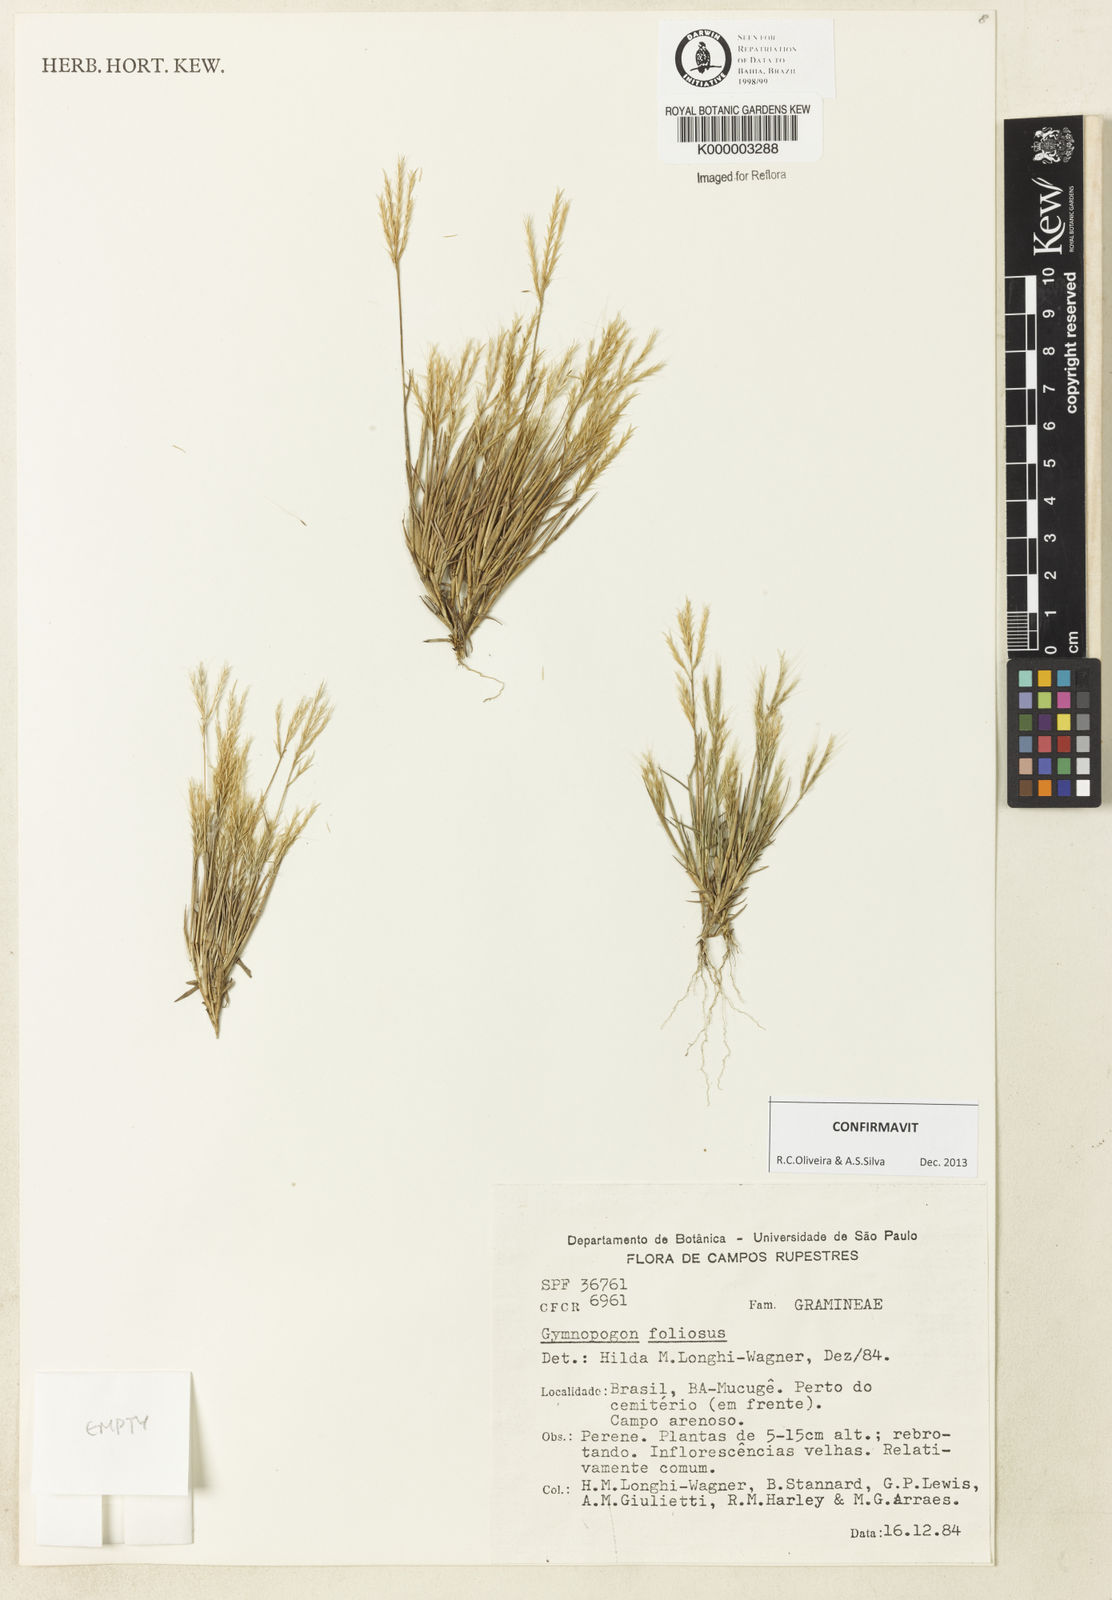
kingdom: Plantae
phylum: Tracheophyta
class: Liliopsida
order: Poales
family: Poaceae
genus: Gymnopogon
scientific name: Gymnopogon foliosus
